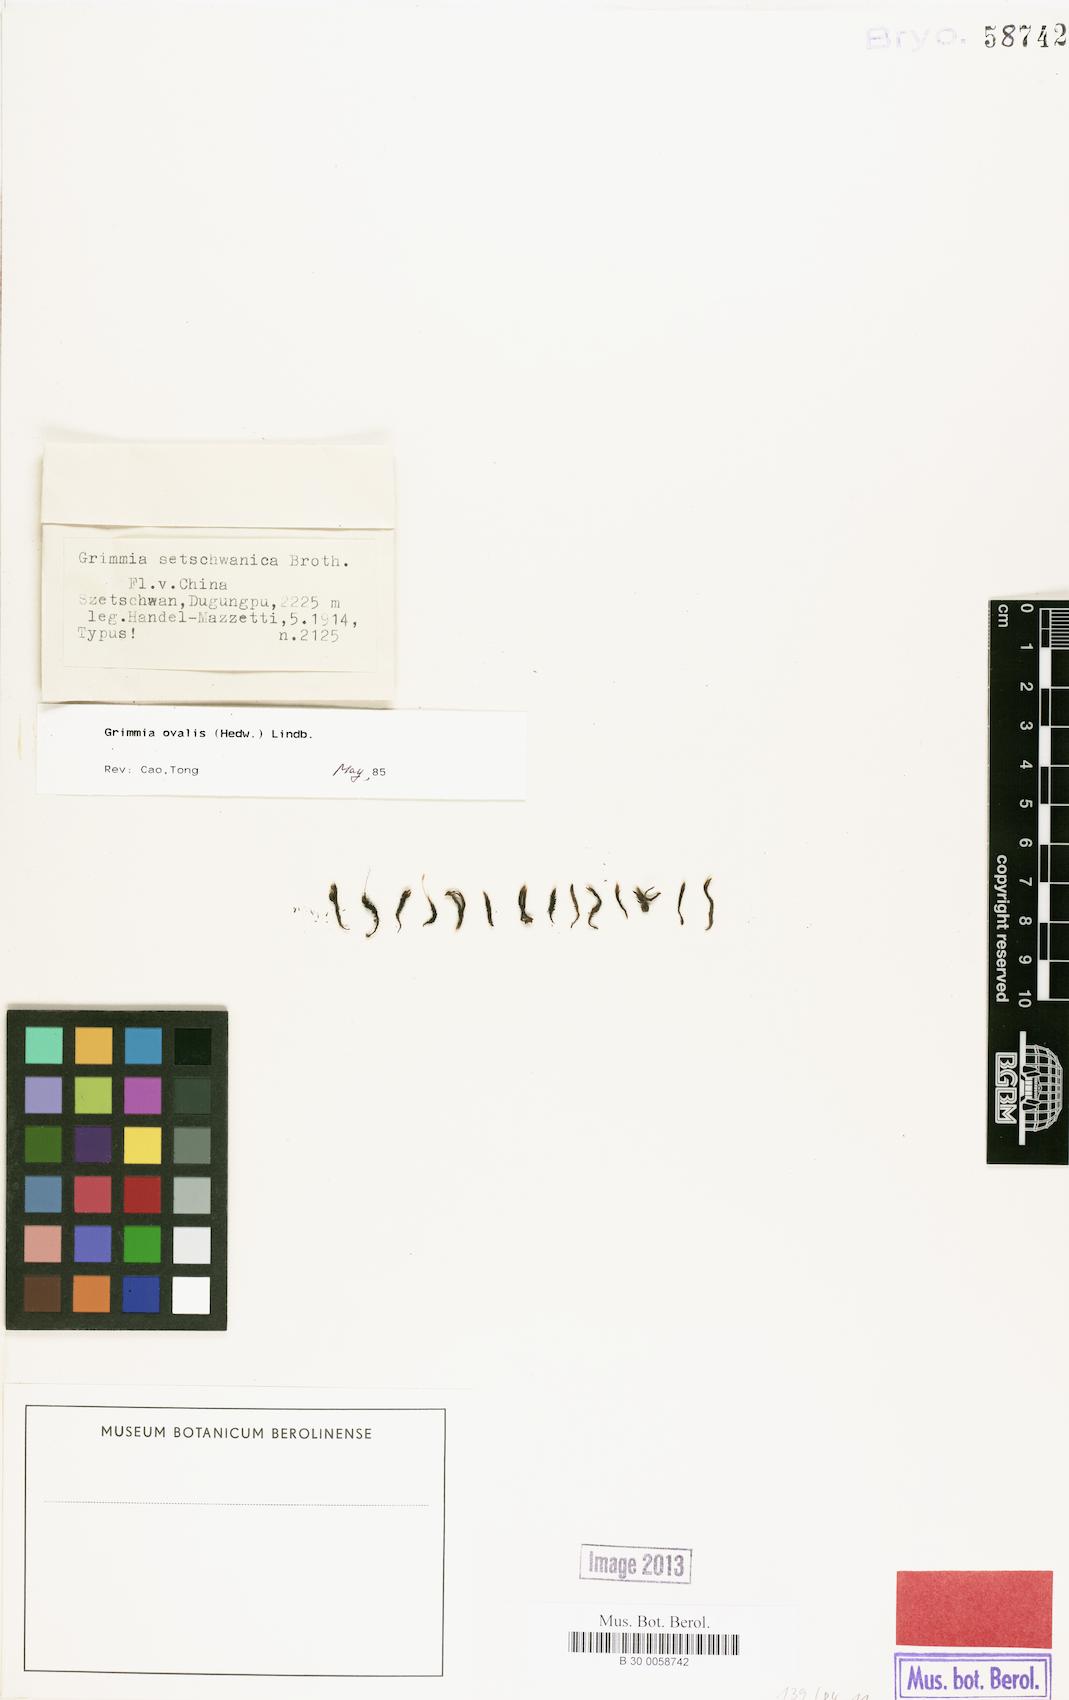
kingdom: Plantae
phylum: Bryophyta
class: Bryopsida
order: Grimmiales
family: Grimmiaceae
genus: Grimmia
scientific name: Grimmia ovalis
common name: Oval grimmia
